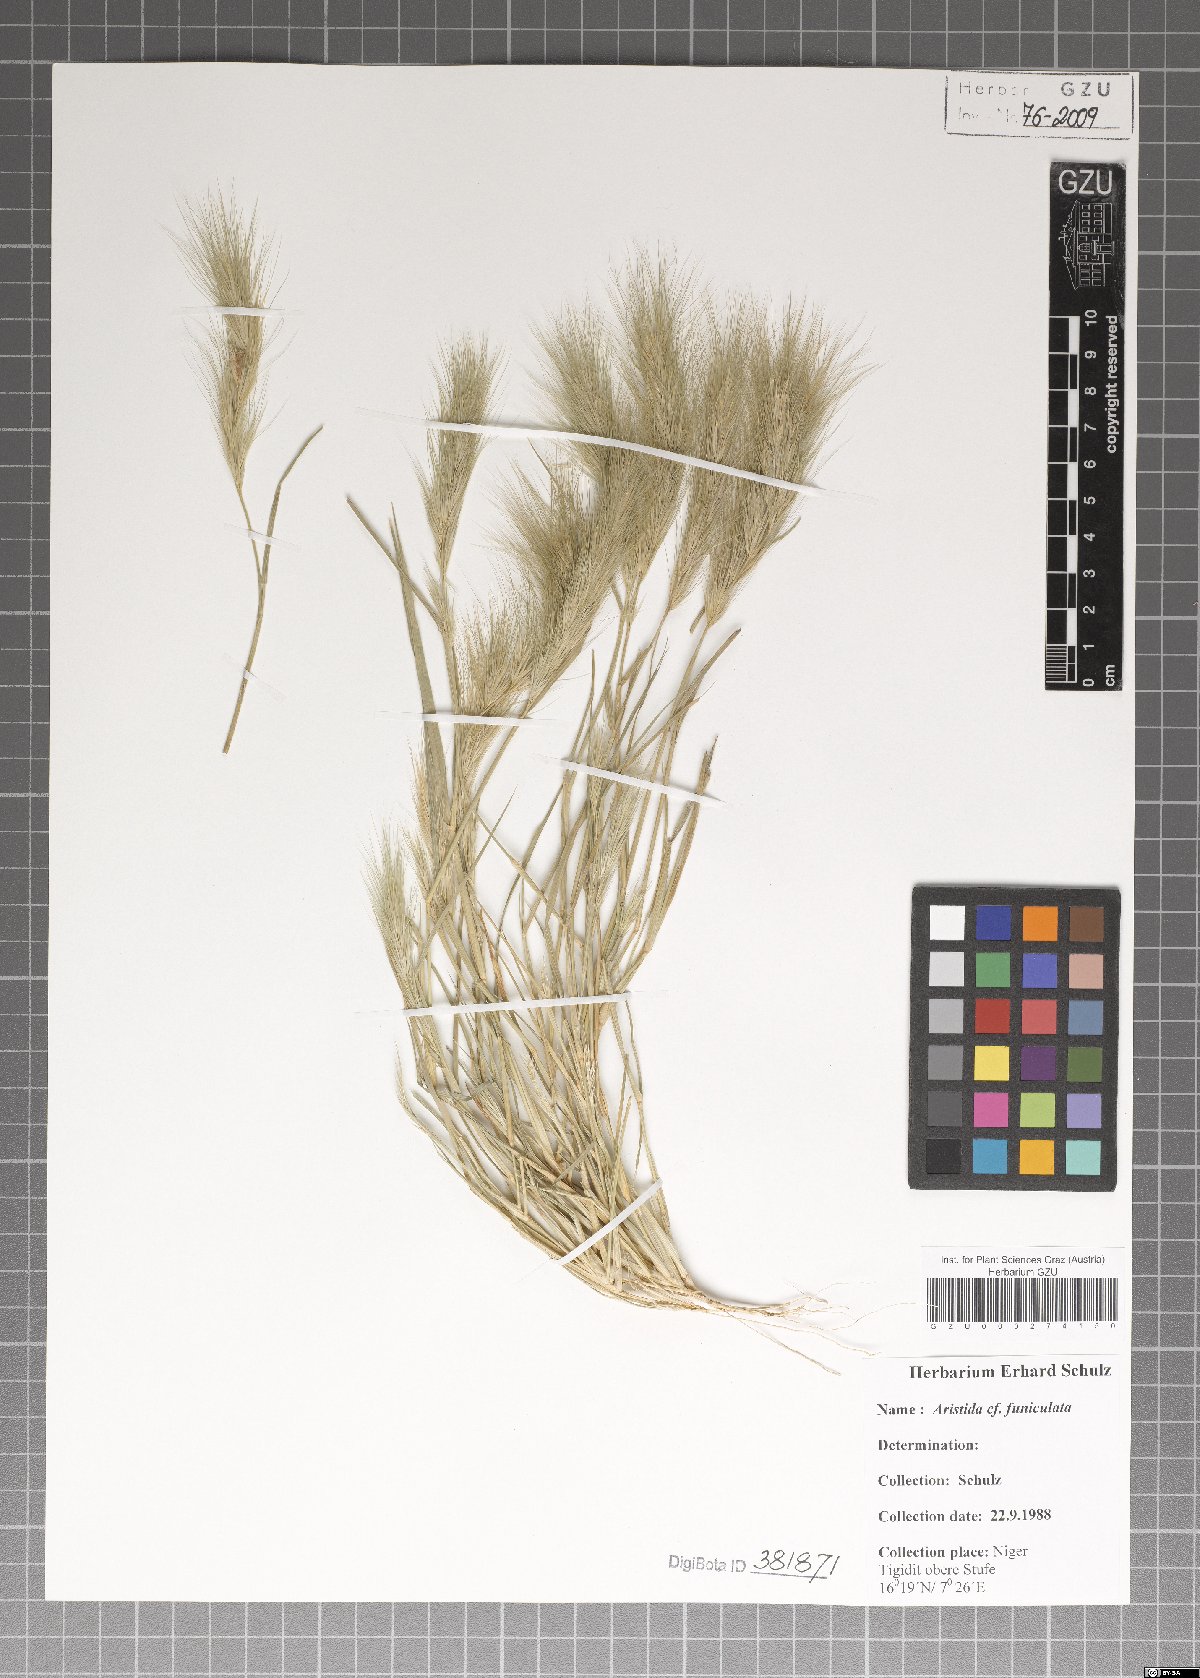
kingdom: Plantae
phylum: Tracheophyta
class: Liliopsida
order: Poales
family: Poaceae
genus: Aristida
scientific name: Aristida funiculata
